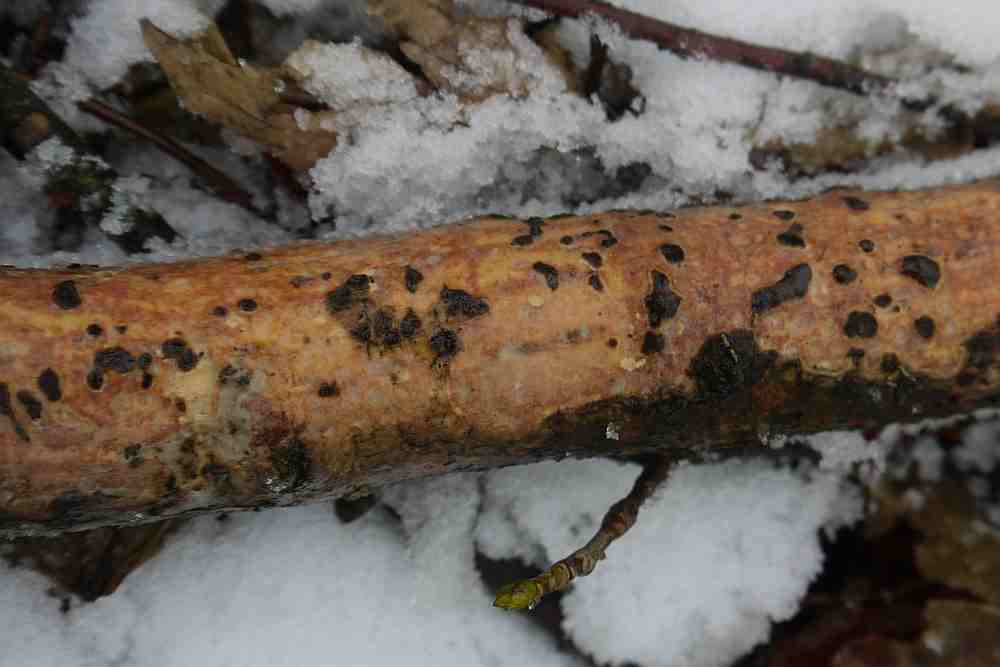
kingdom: Fungi
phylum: Basidiomycota
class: Agaricomycetes
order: Corticiales
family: Vuilleminiaceae
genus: Vuilleminia
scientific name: Vuilleminia comedens
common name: almindelig barksprænger
